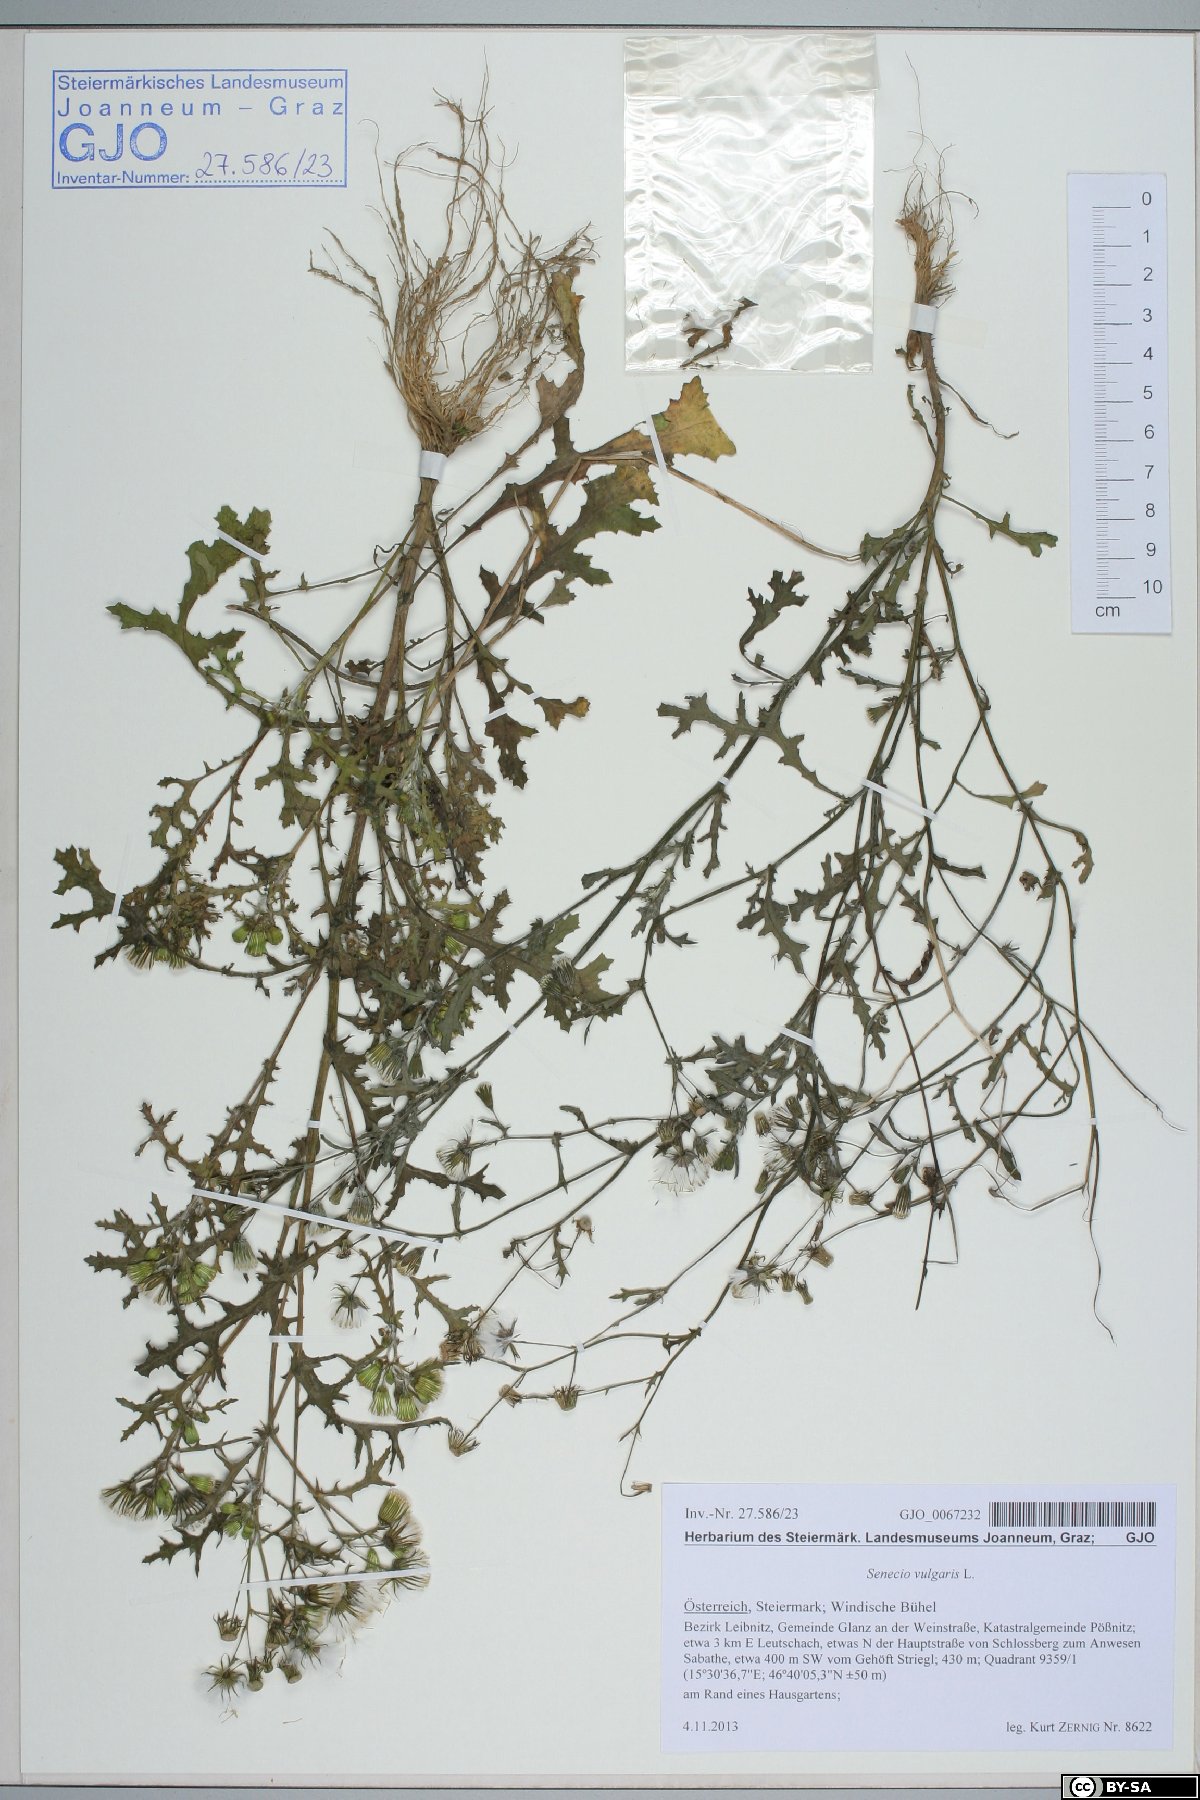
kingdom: Plantae
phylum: Tracheophyta
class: Magnoliopsida
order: Asterales
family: Asteraceae
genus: Senecio
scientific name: Senecio vulgaris
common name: Old-man-in-the-spring
